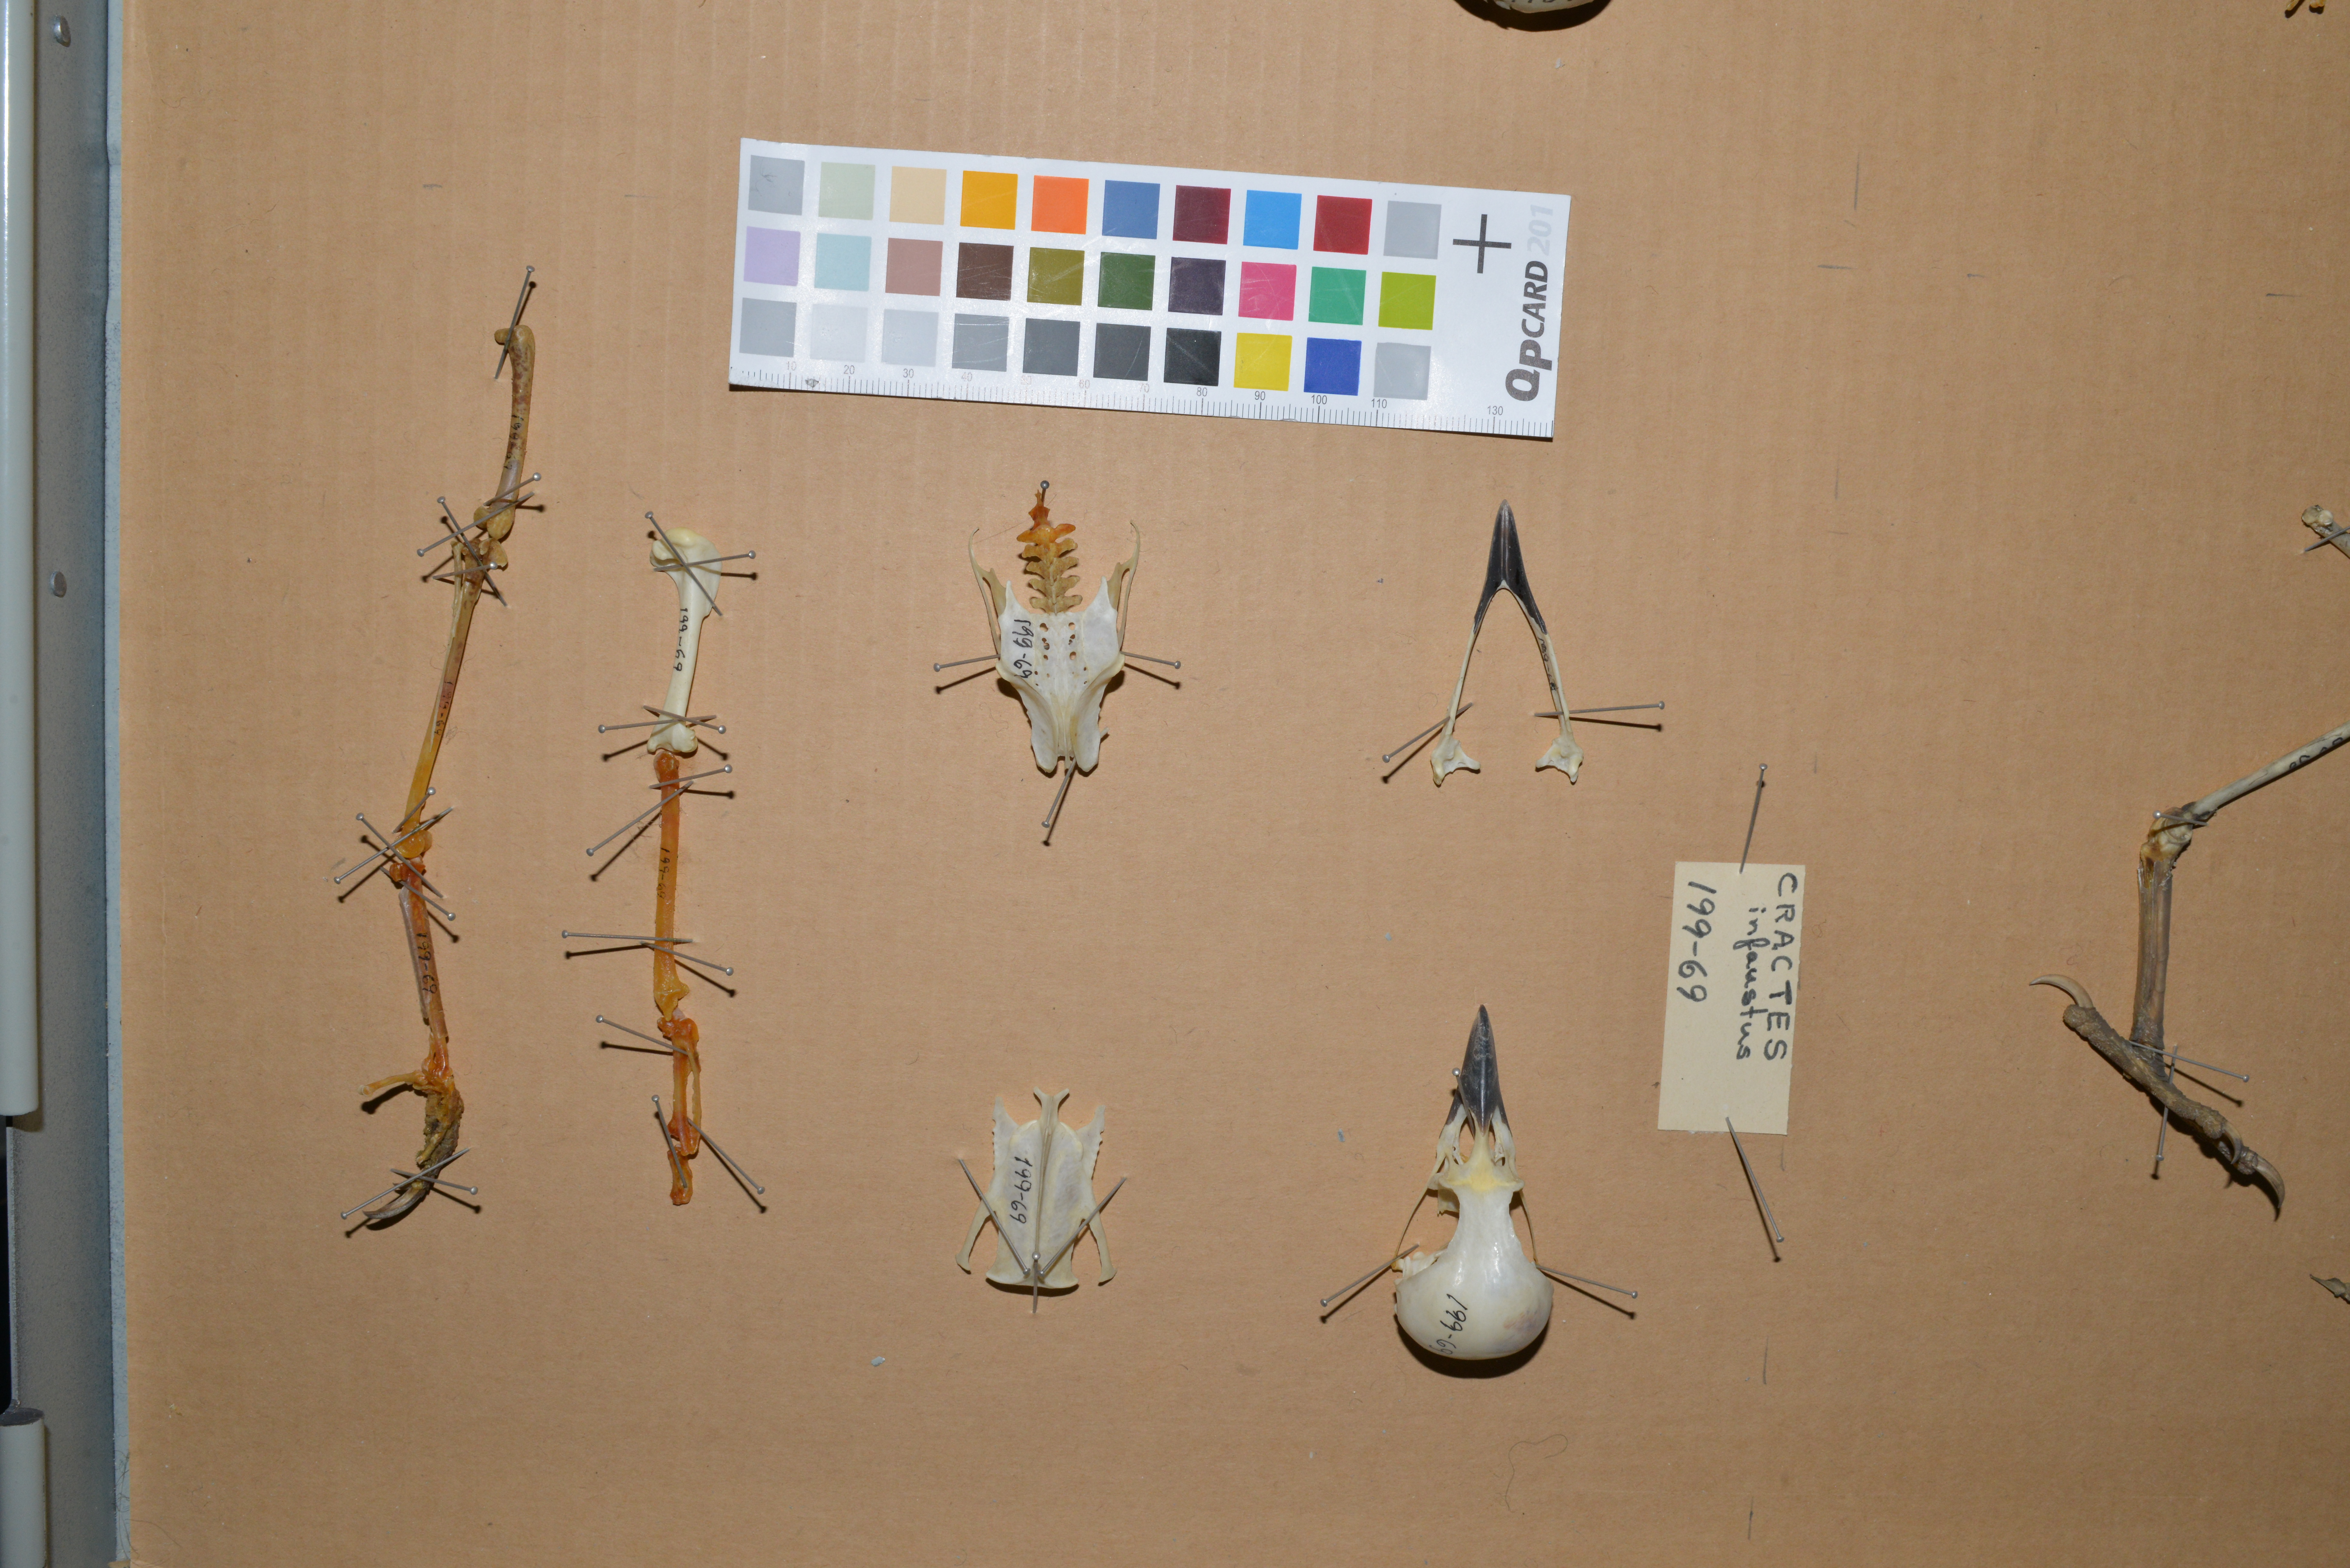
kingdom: Animalia
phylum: Chordata
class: Aves
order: Passeriformes
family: Corvidae
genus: Garrulus
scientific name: Garrulus glandarius
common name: Eurasian jay
